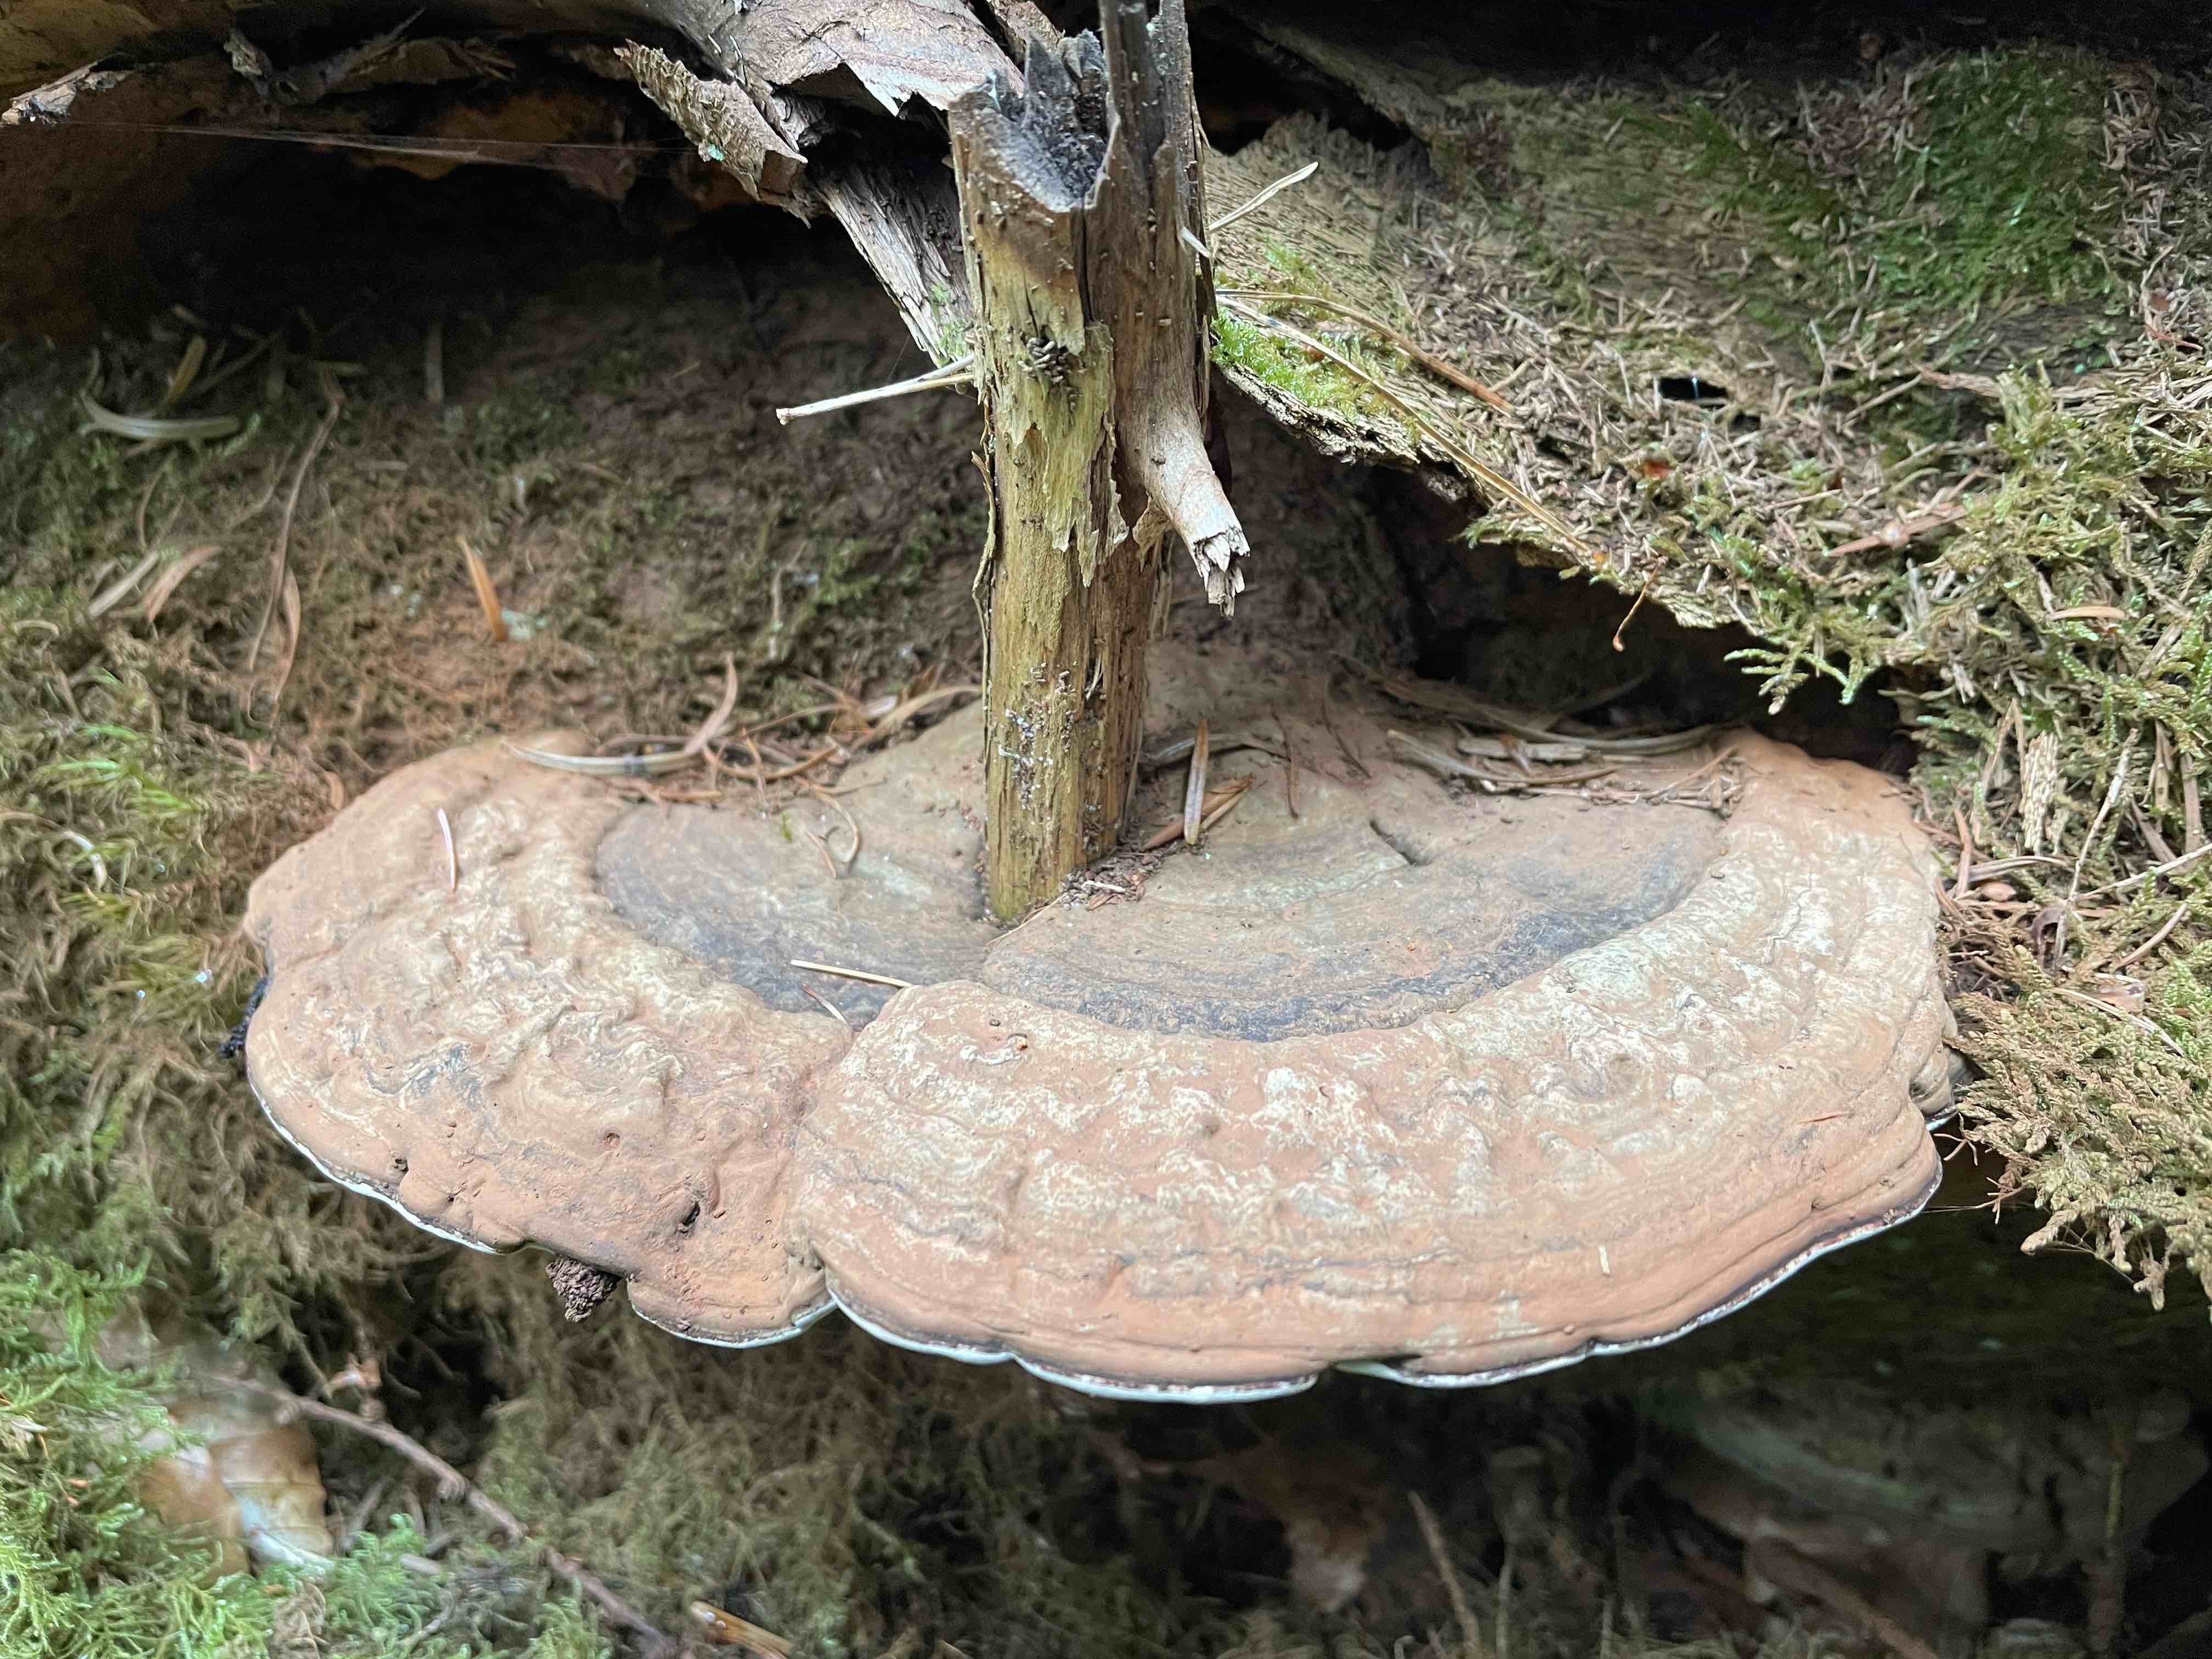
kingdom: Fungi
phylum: Basidiomycota
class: Agaricomycetes
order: Polyporales
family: Polyporaceae
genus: Ganoderma
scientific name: Ganoderma applanatum
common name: flad lakporesvamp
